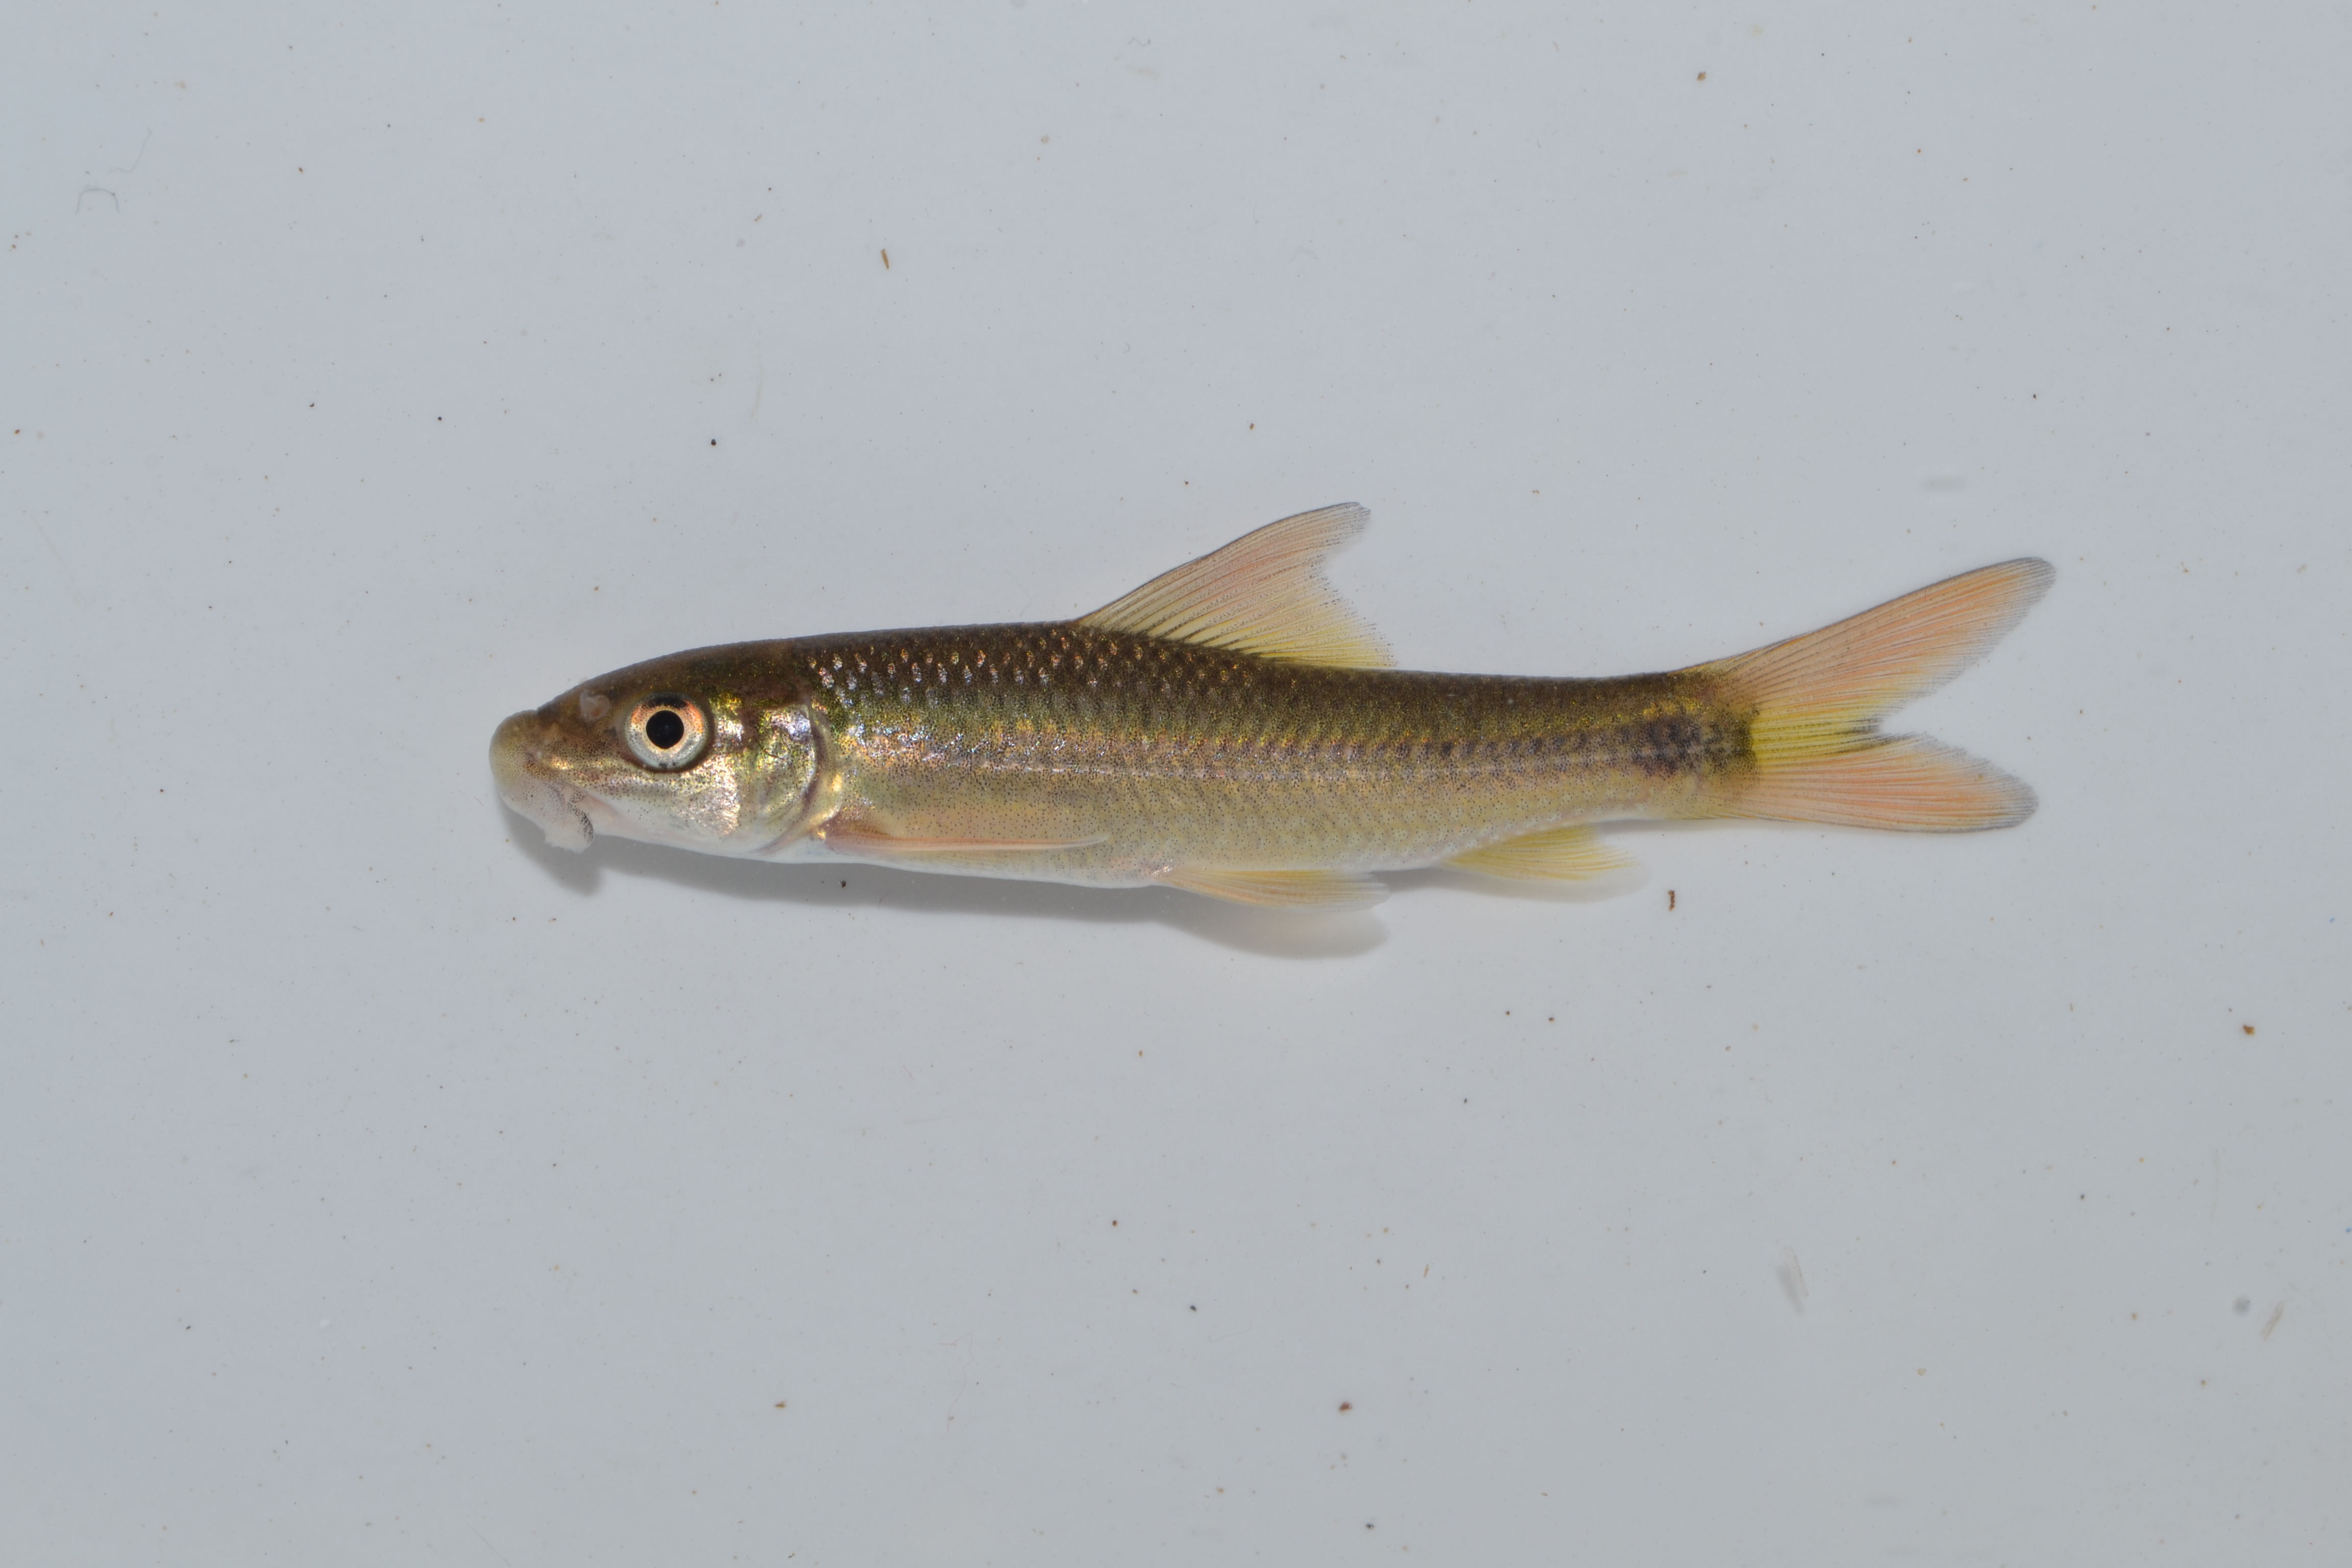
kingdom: Animalia
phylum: Chordata
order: Cypriniformes
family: Cyprinidae
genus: Labeo
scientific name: Labeo rubromaculatus
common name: Tugela labeo
